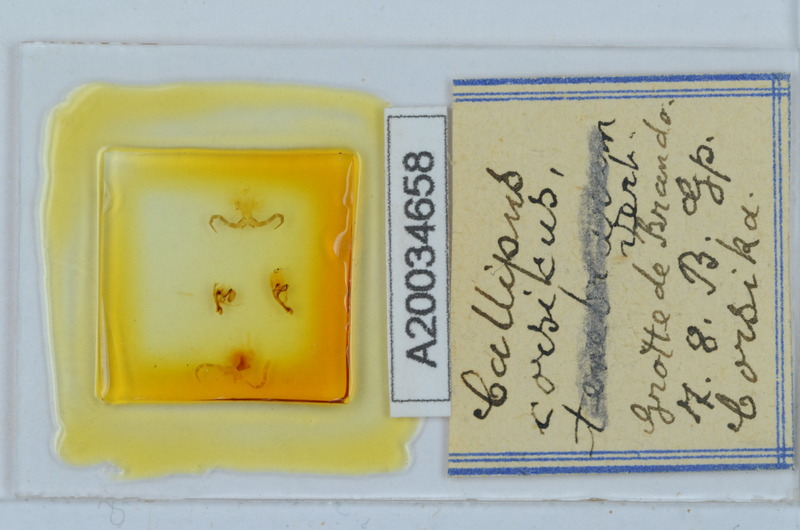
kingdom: Animalia
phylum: Arthropoda
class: Diplopoda
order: Callipodida
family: Callipodidae
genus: Callipus
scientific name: Callipus corsicus
